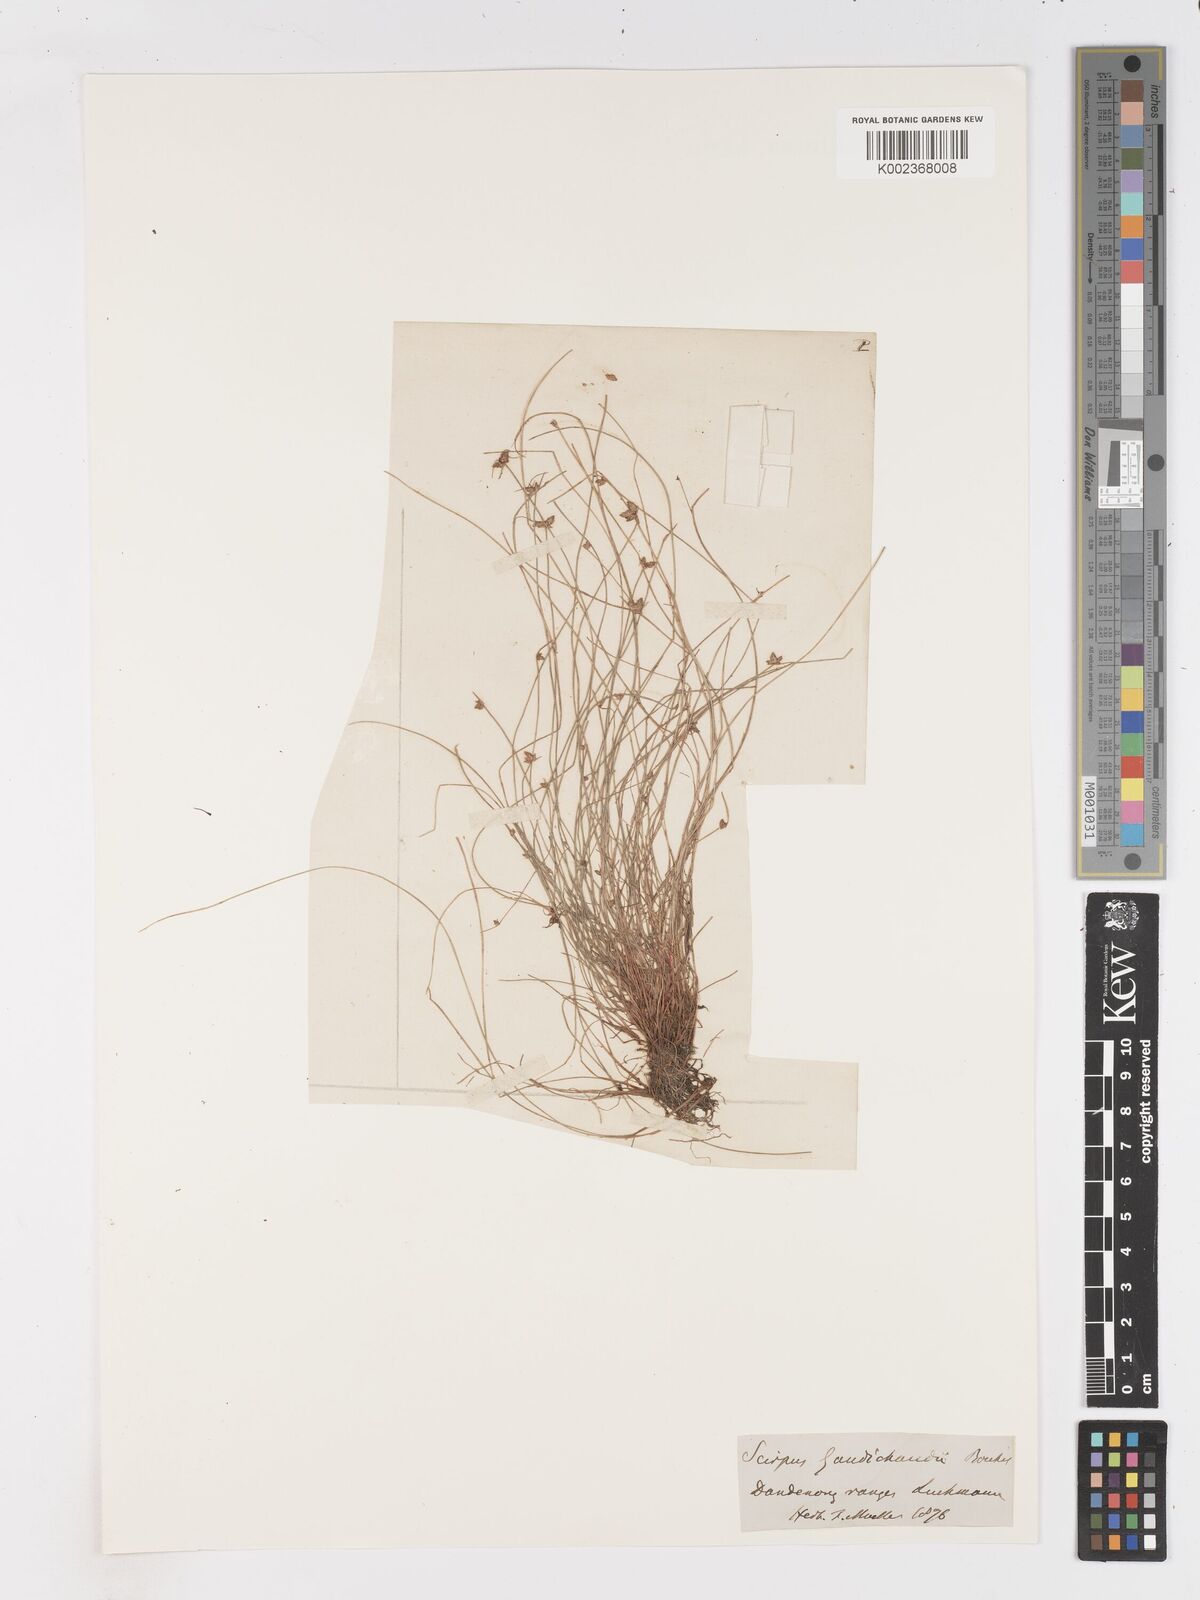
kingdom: Plantae
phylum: Tracheophyta
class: Liliopsida
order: Poales
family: Cyperaceae
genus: Isolepis
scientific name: Isolepis inundata
